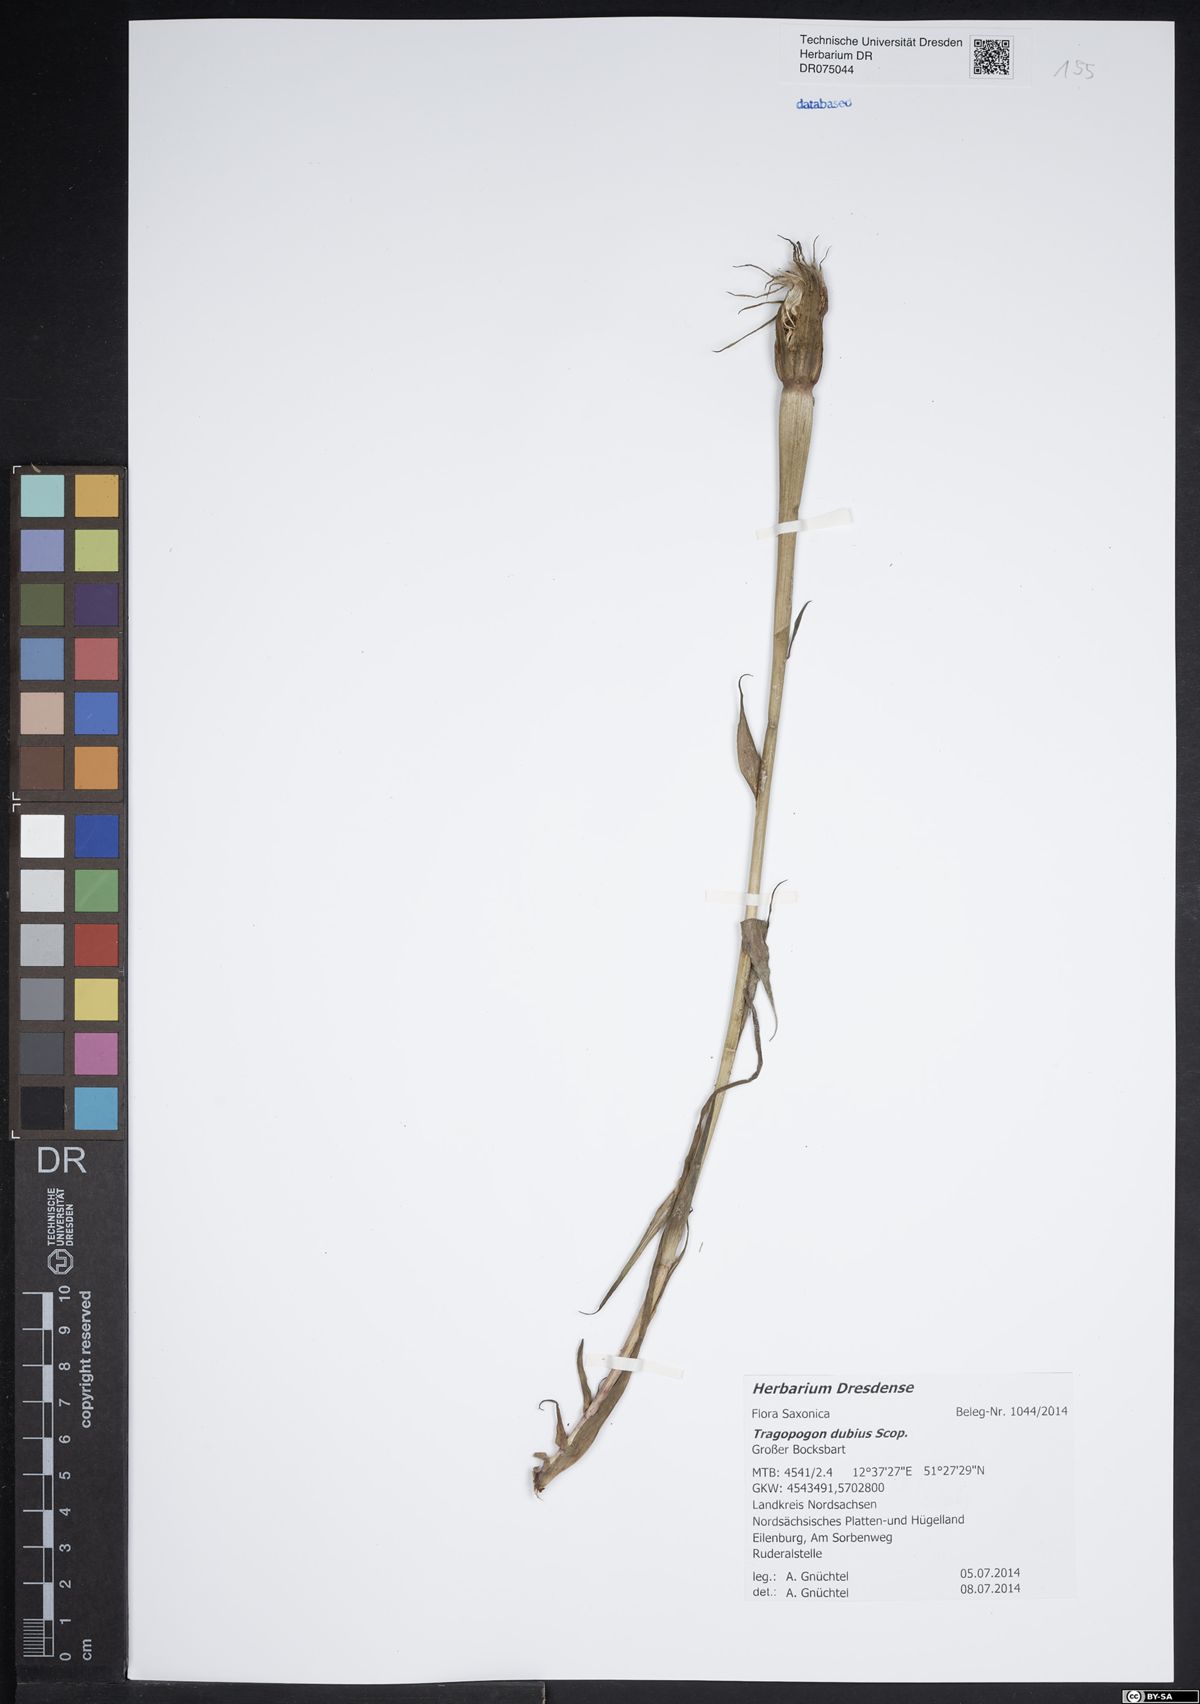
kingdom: Plantae
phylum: Tracheophyta
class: Magnoliopsida
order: Asterales
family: Asteraceae
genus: Tragopogon
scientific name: Tragopogon dubius
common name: Yellow salsify
